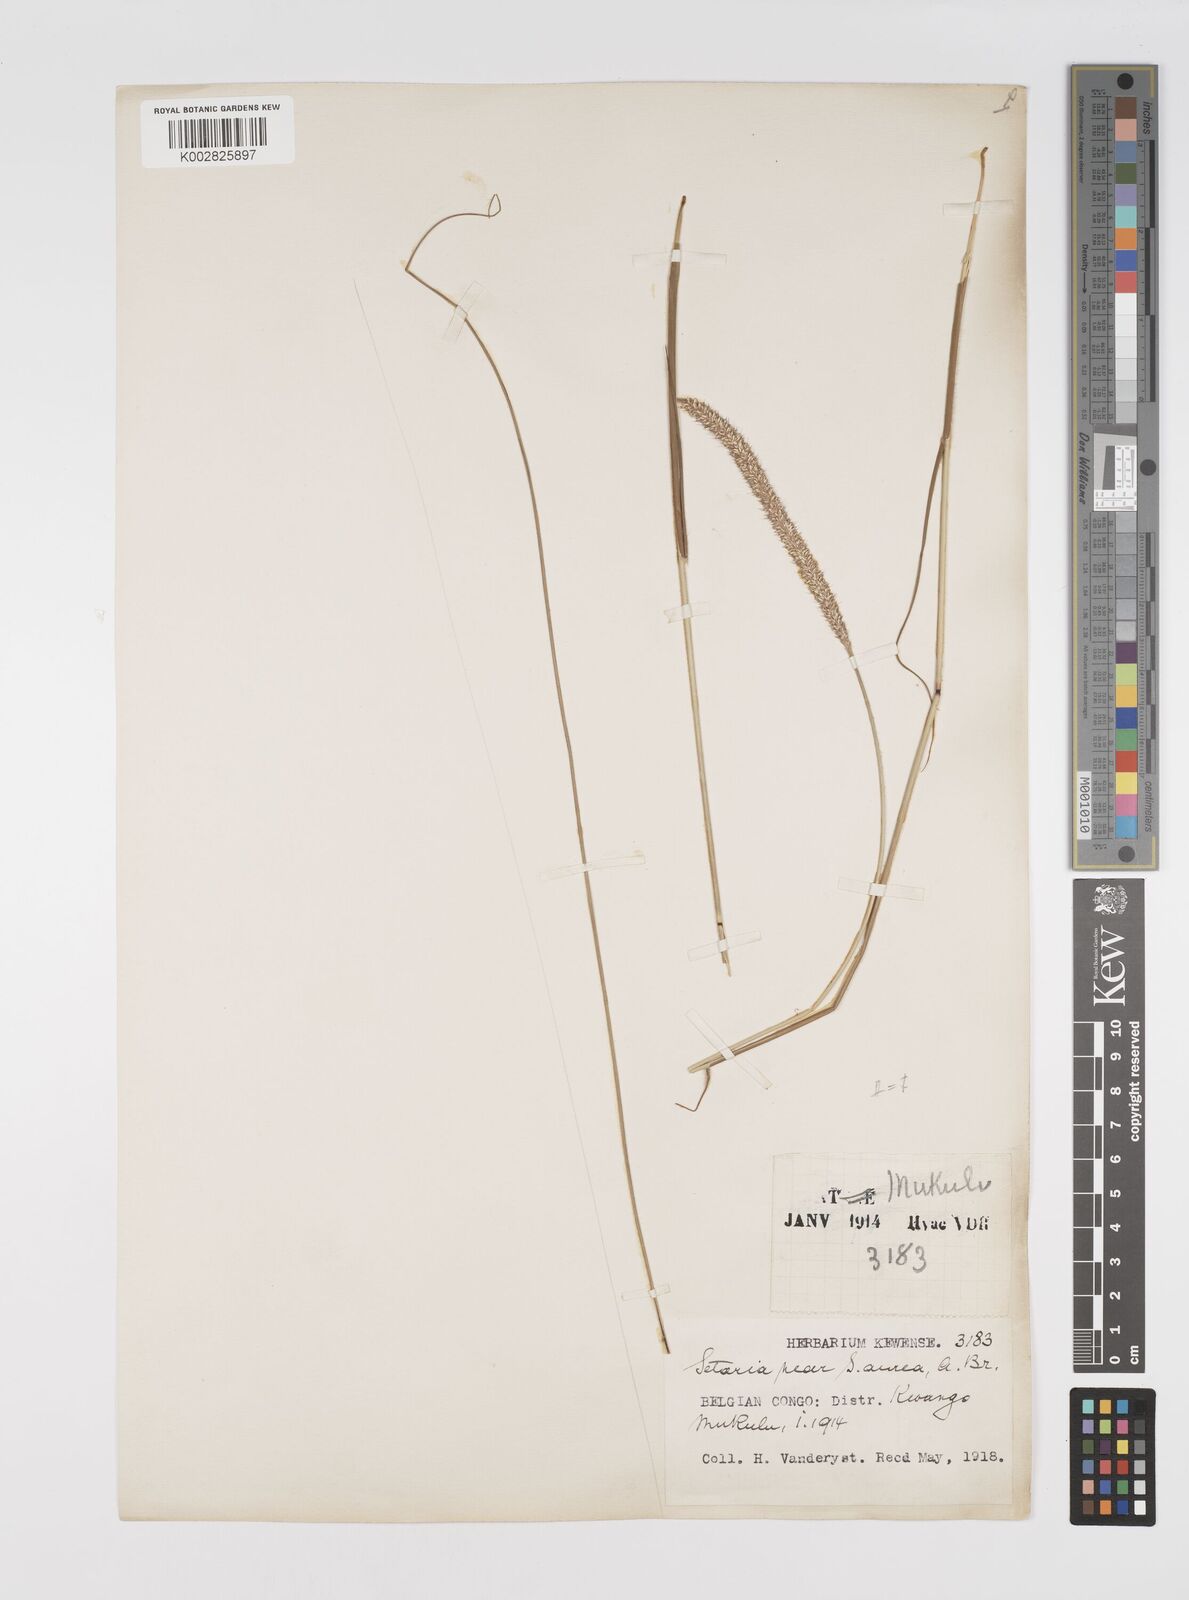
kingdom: Plantae
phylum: Tracheophyta
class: Liliopsida
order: Poales
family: Poaceae
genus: Setaria
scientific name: Setaria restioidea
